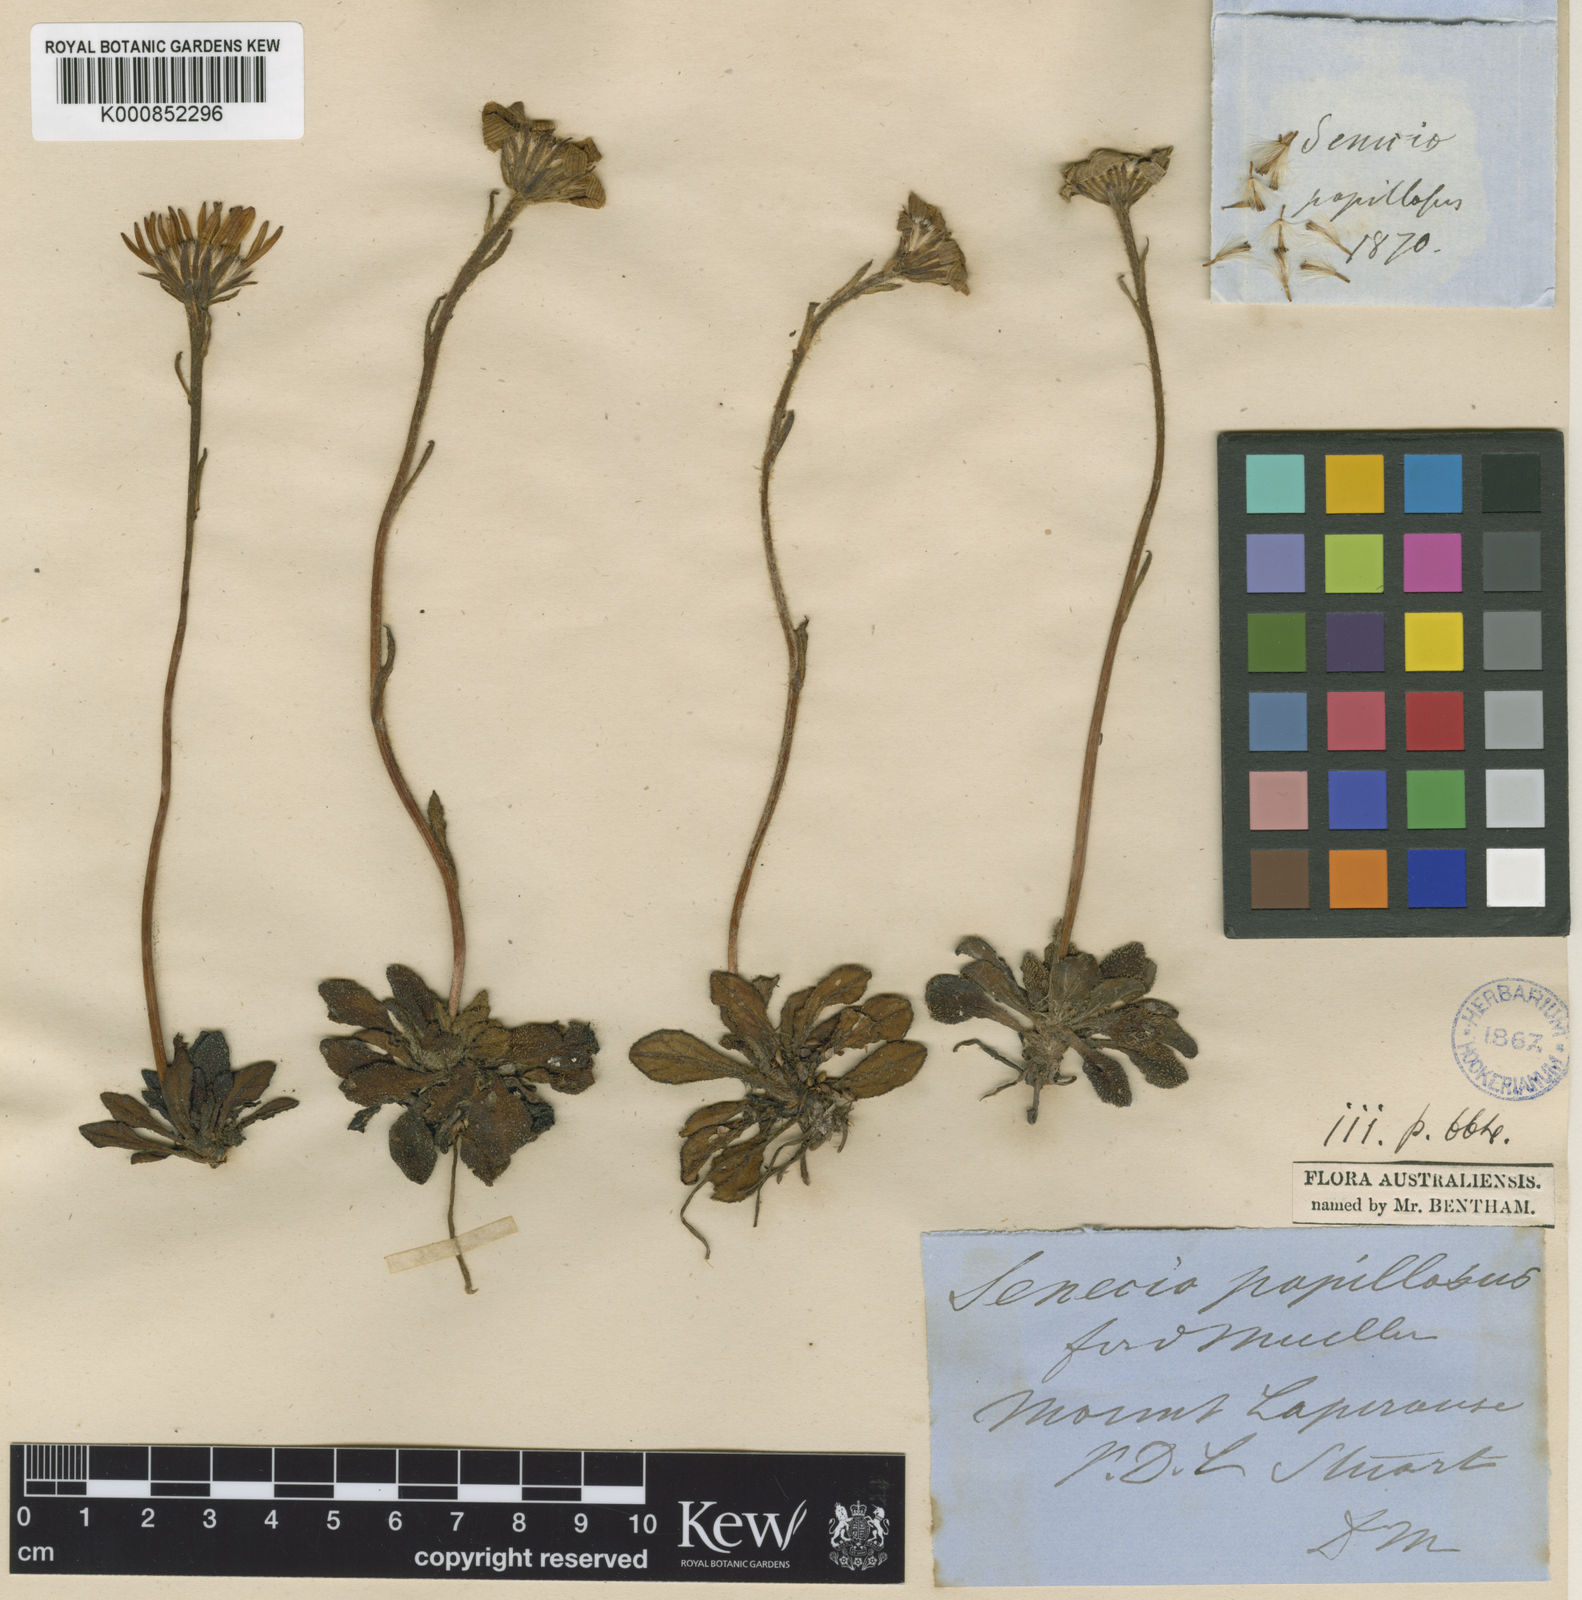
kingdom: Plantae
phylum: Tracheophyta
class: Magnoliopsida
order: Asterales
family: Asteraceae
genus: Scapisenecio
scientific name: Scapisenecio papillosus
